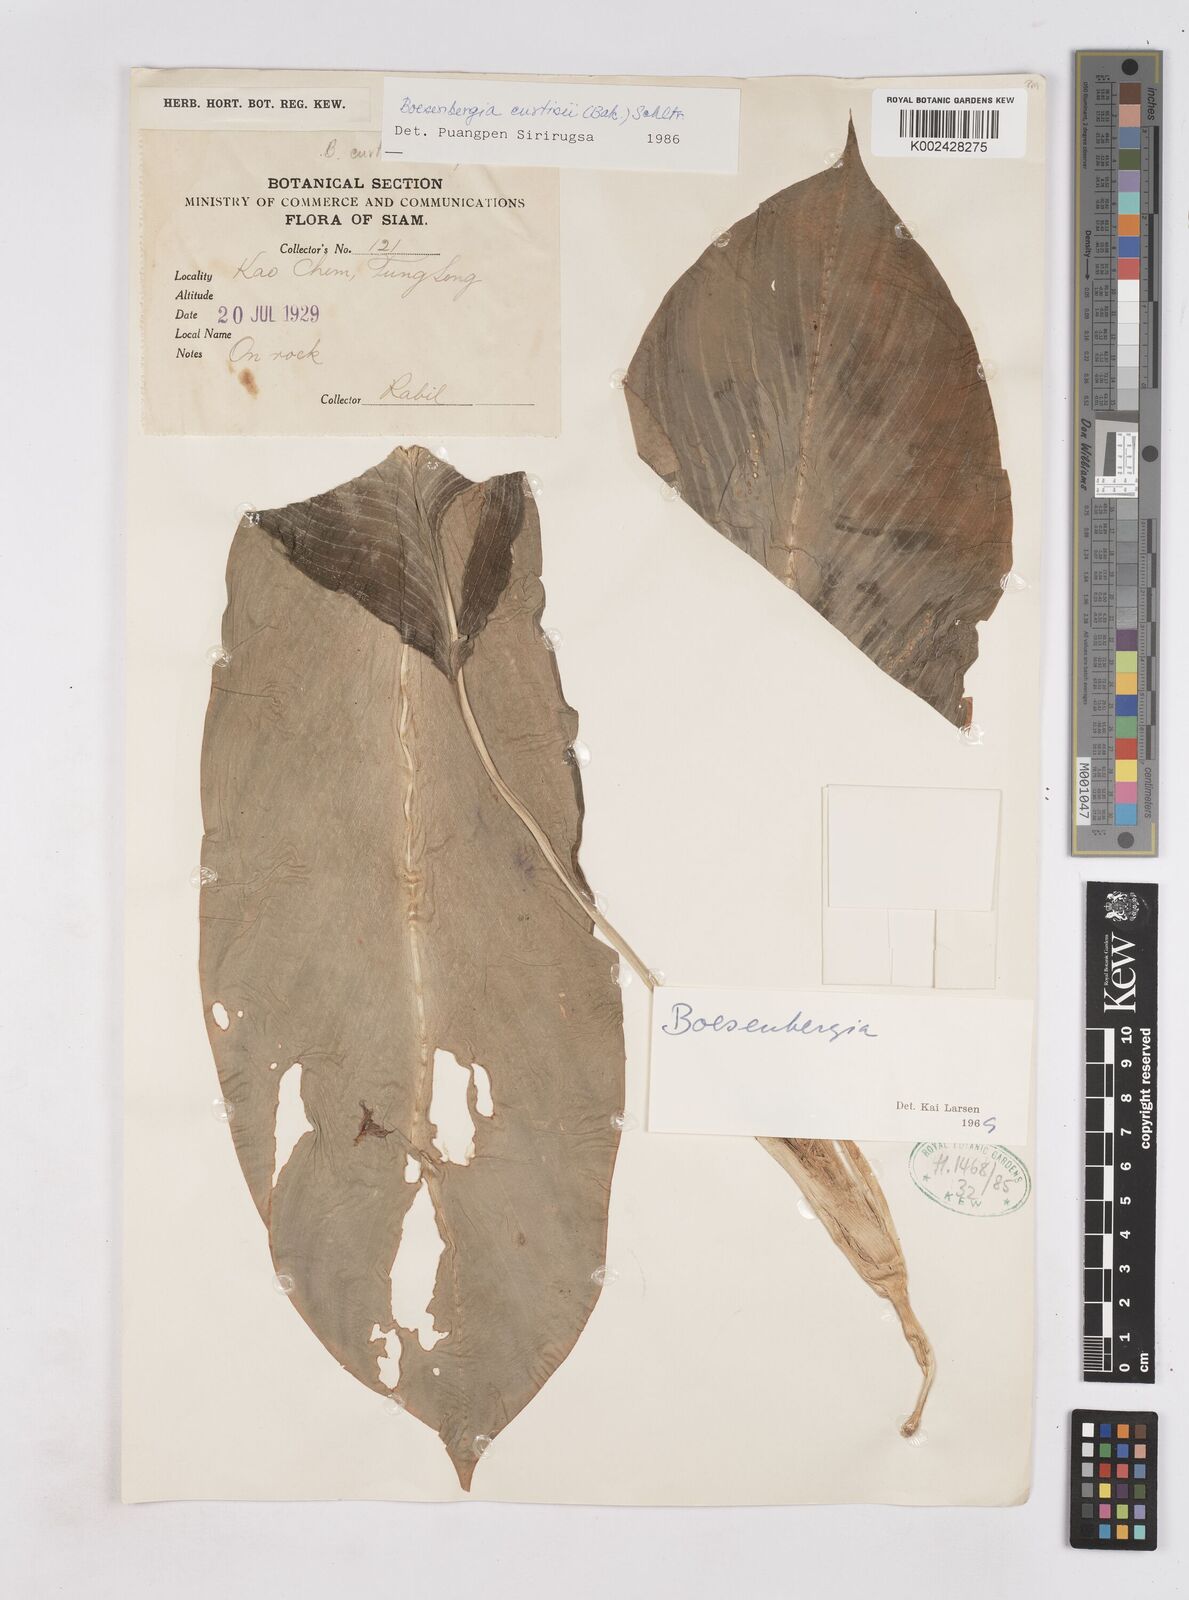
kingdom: Plantae
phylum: Tracheophyta
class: Liliopsida
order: Zingiberales
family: Zingiberaceae
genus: Boesenbergia
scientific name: Boesenbergia curtisii
